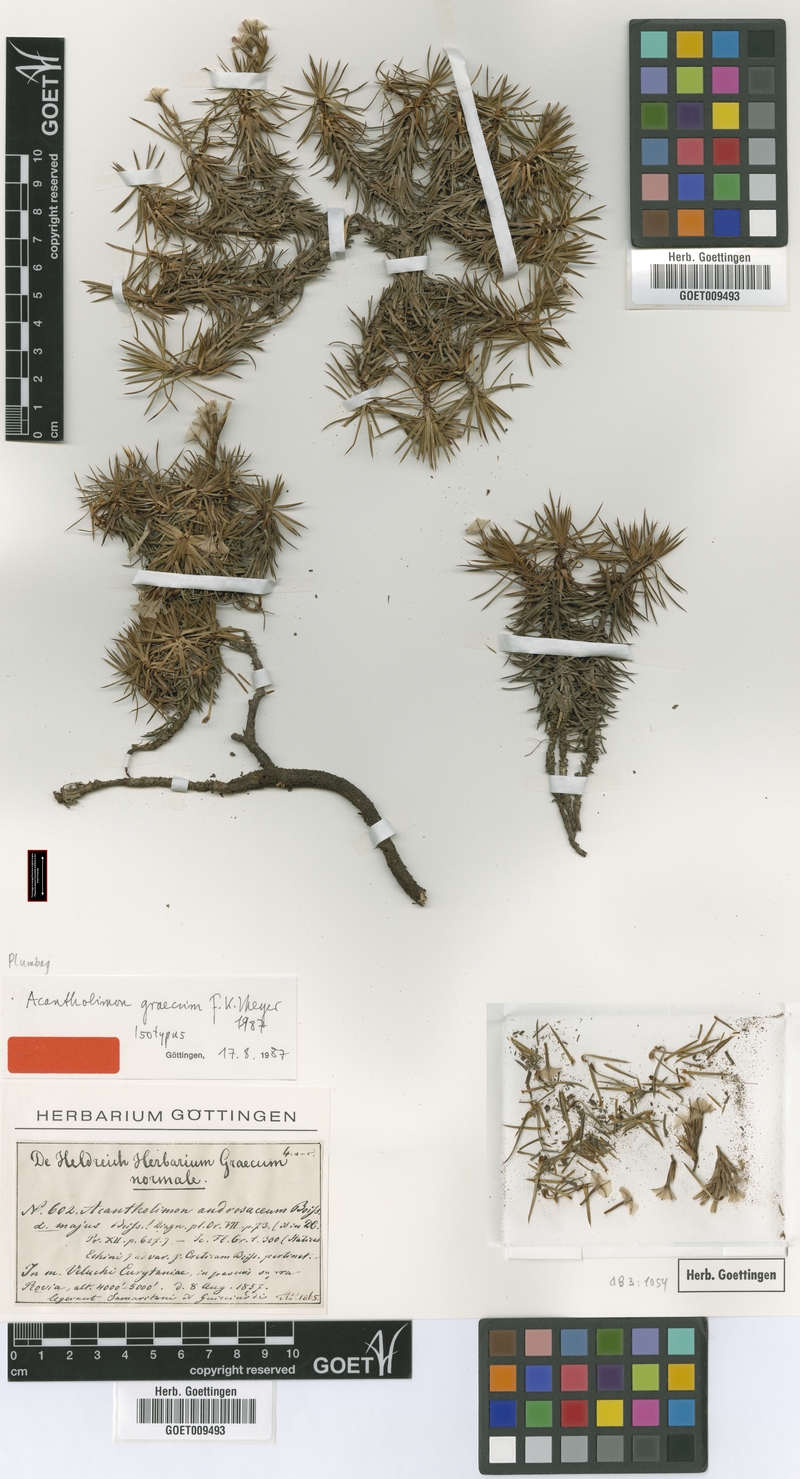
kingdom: Plantae
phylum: Tracheophyta
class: Magnoliopsida
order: Caryophyllales
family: Plumbaginaceae
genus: Acantholimon
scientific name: Acantholimon graecum
